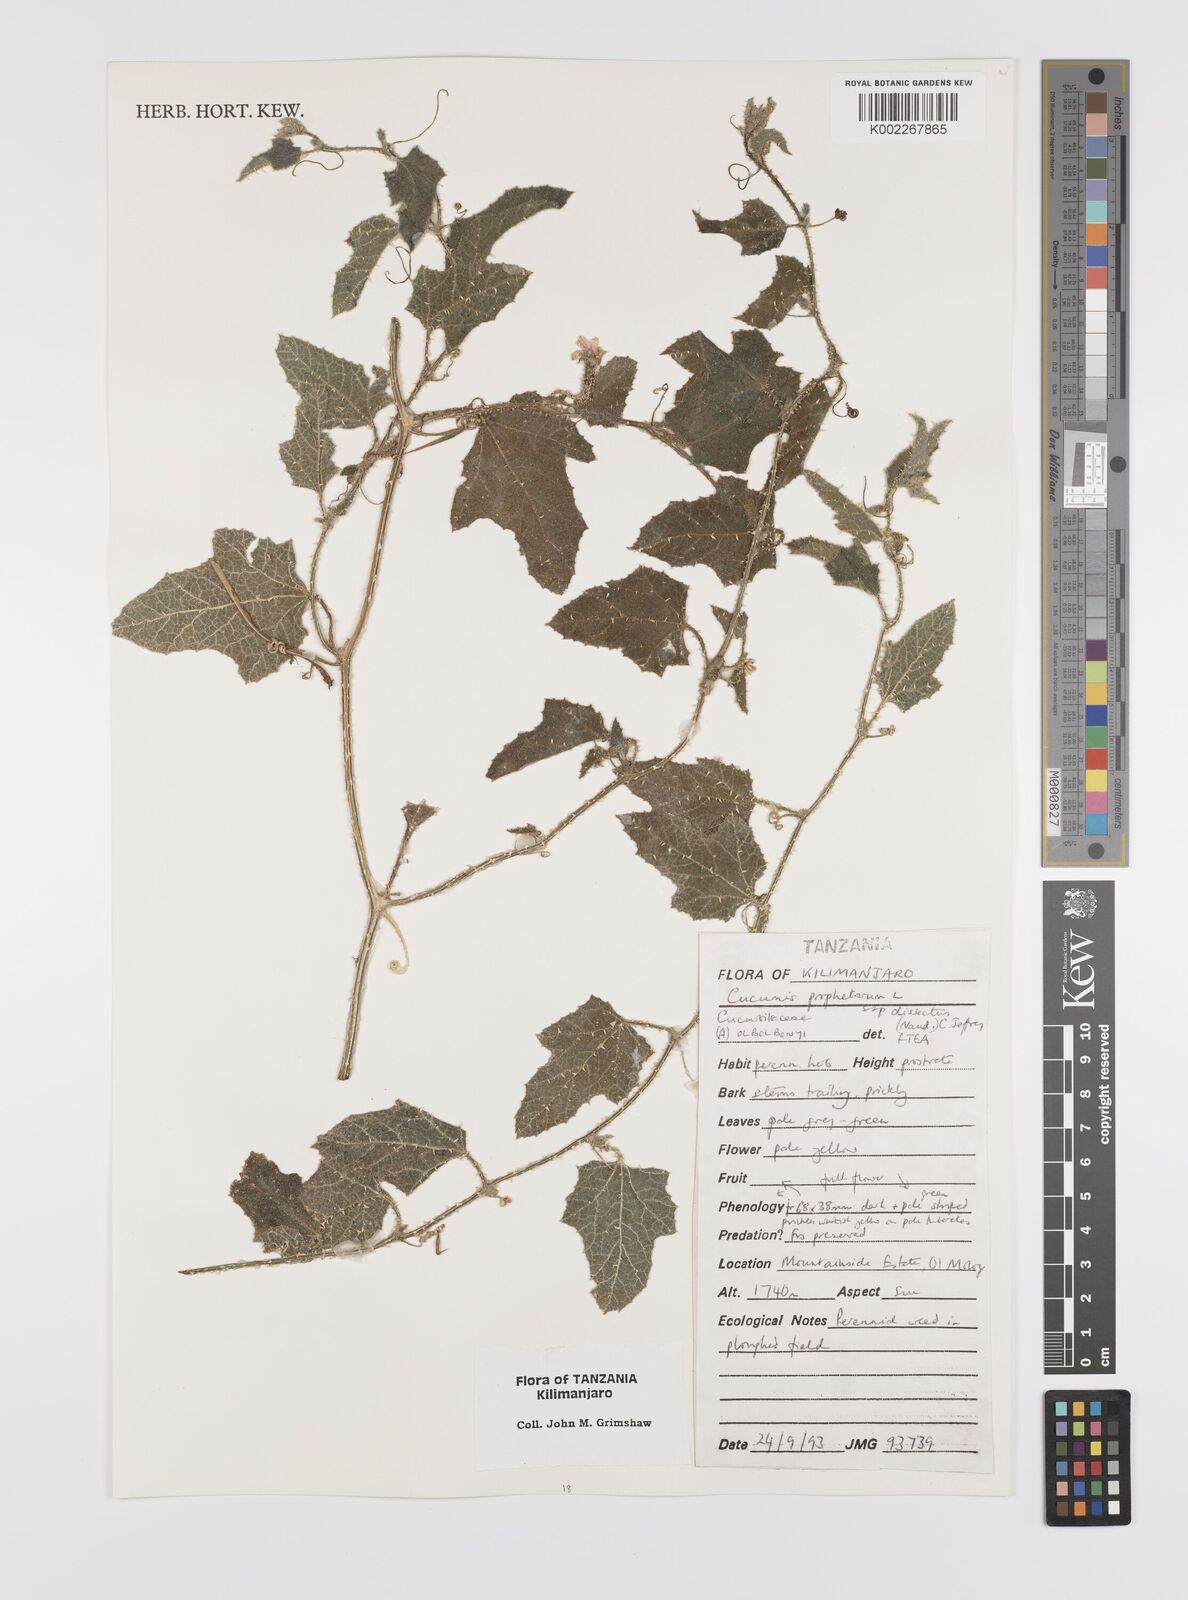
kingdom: Plantae
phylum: Tracheophyta
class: Magnoliopsida
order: Cucurbitales
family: Cucurbitaceae
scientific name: Cucurbitaceae
